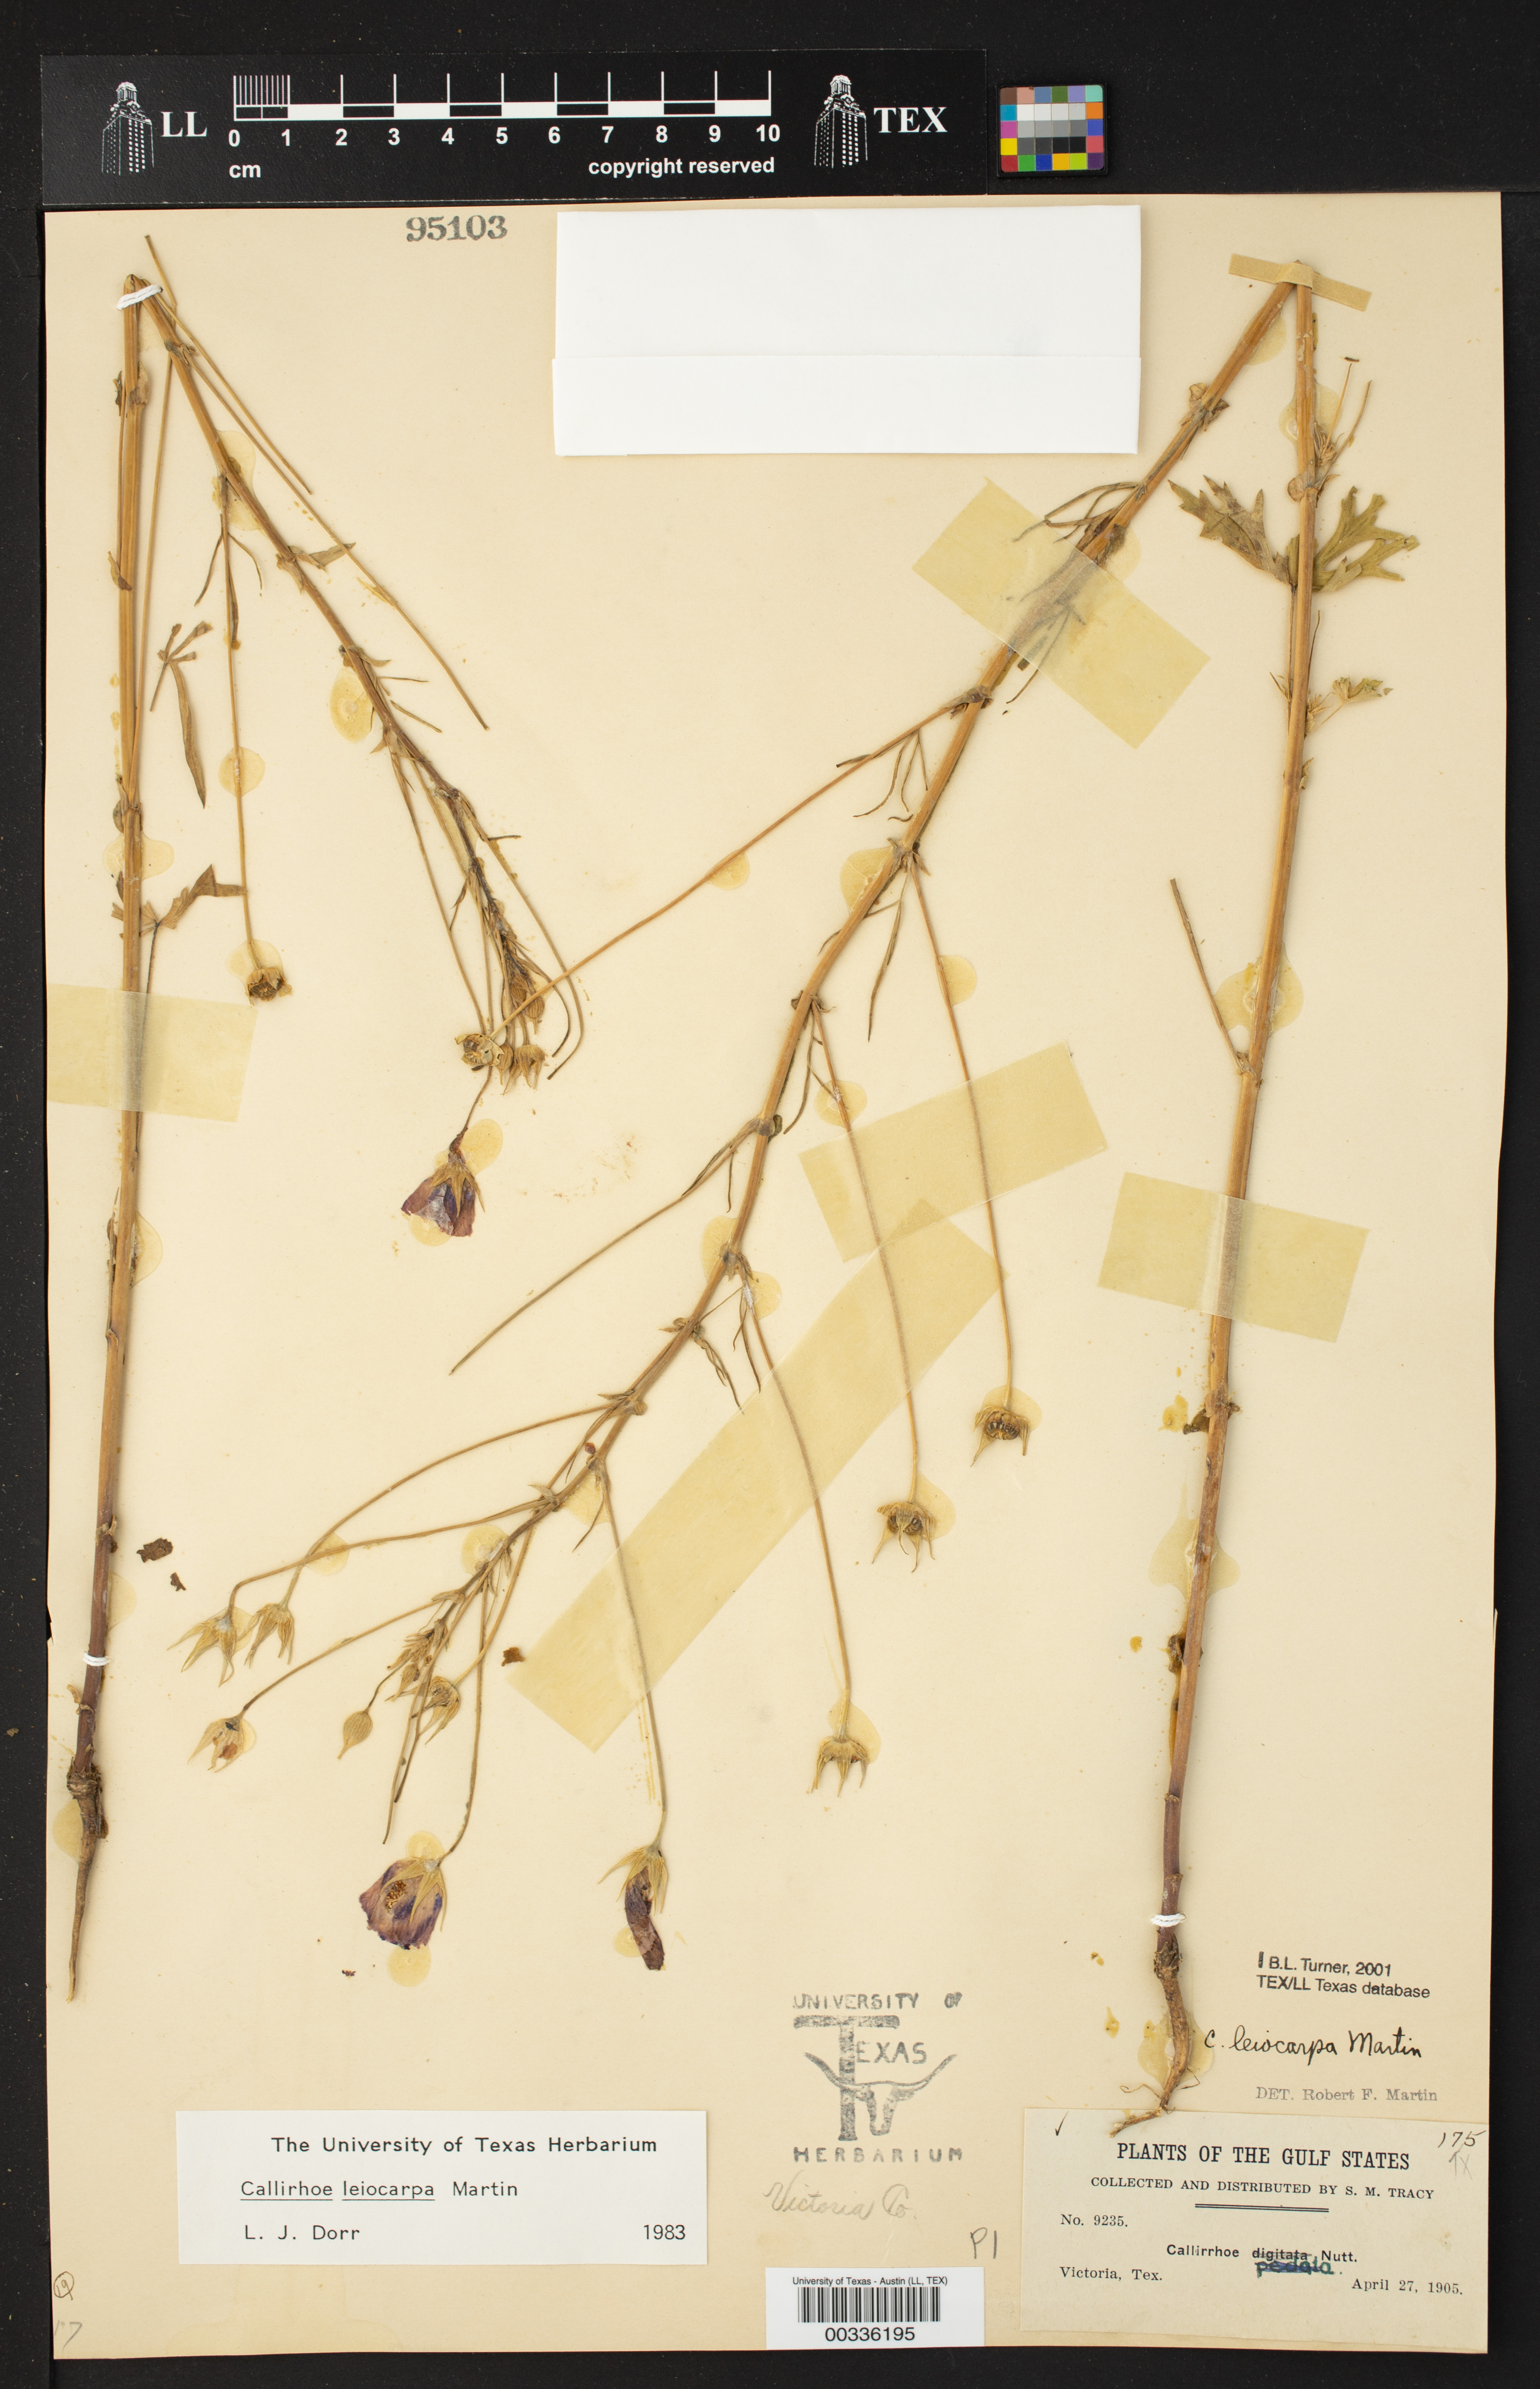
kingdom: Plantae
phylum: Tracheophyta
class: Magnoliopsida
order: Malvales
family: Malvaceae
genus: Callirhoe
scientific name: Callirhoe leiocarpa
